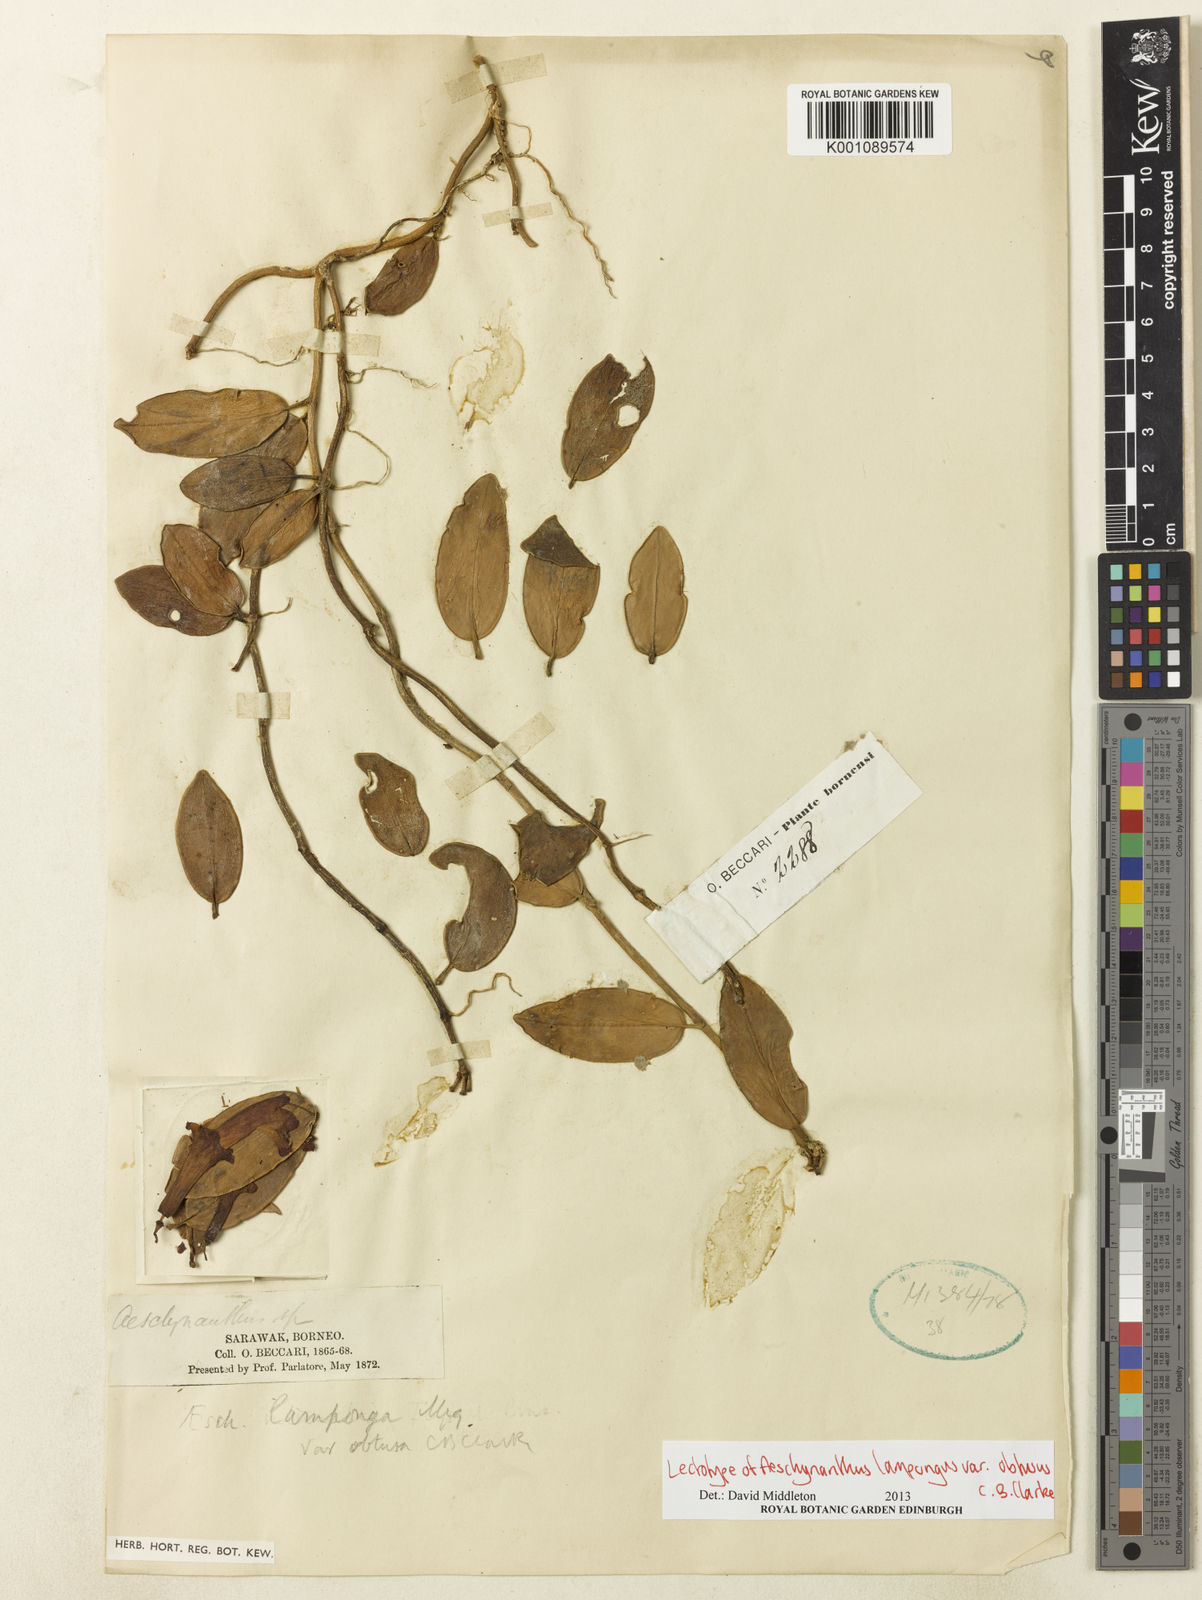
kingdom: Plantae
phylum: Tracheophyta
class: Magnoliopsida
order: Lamiales
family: Gesneriaceae
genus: Aeschynanthus
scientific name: Aeschynanthus pulcher
